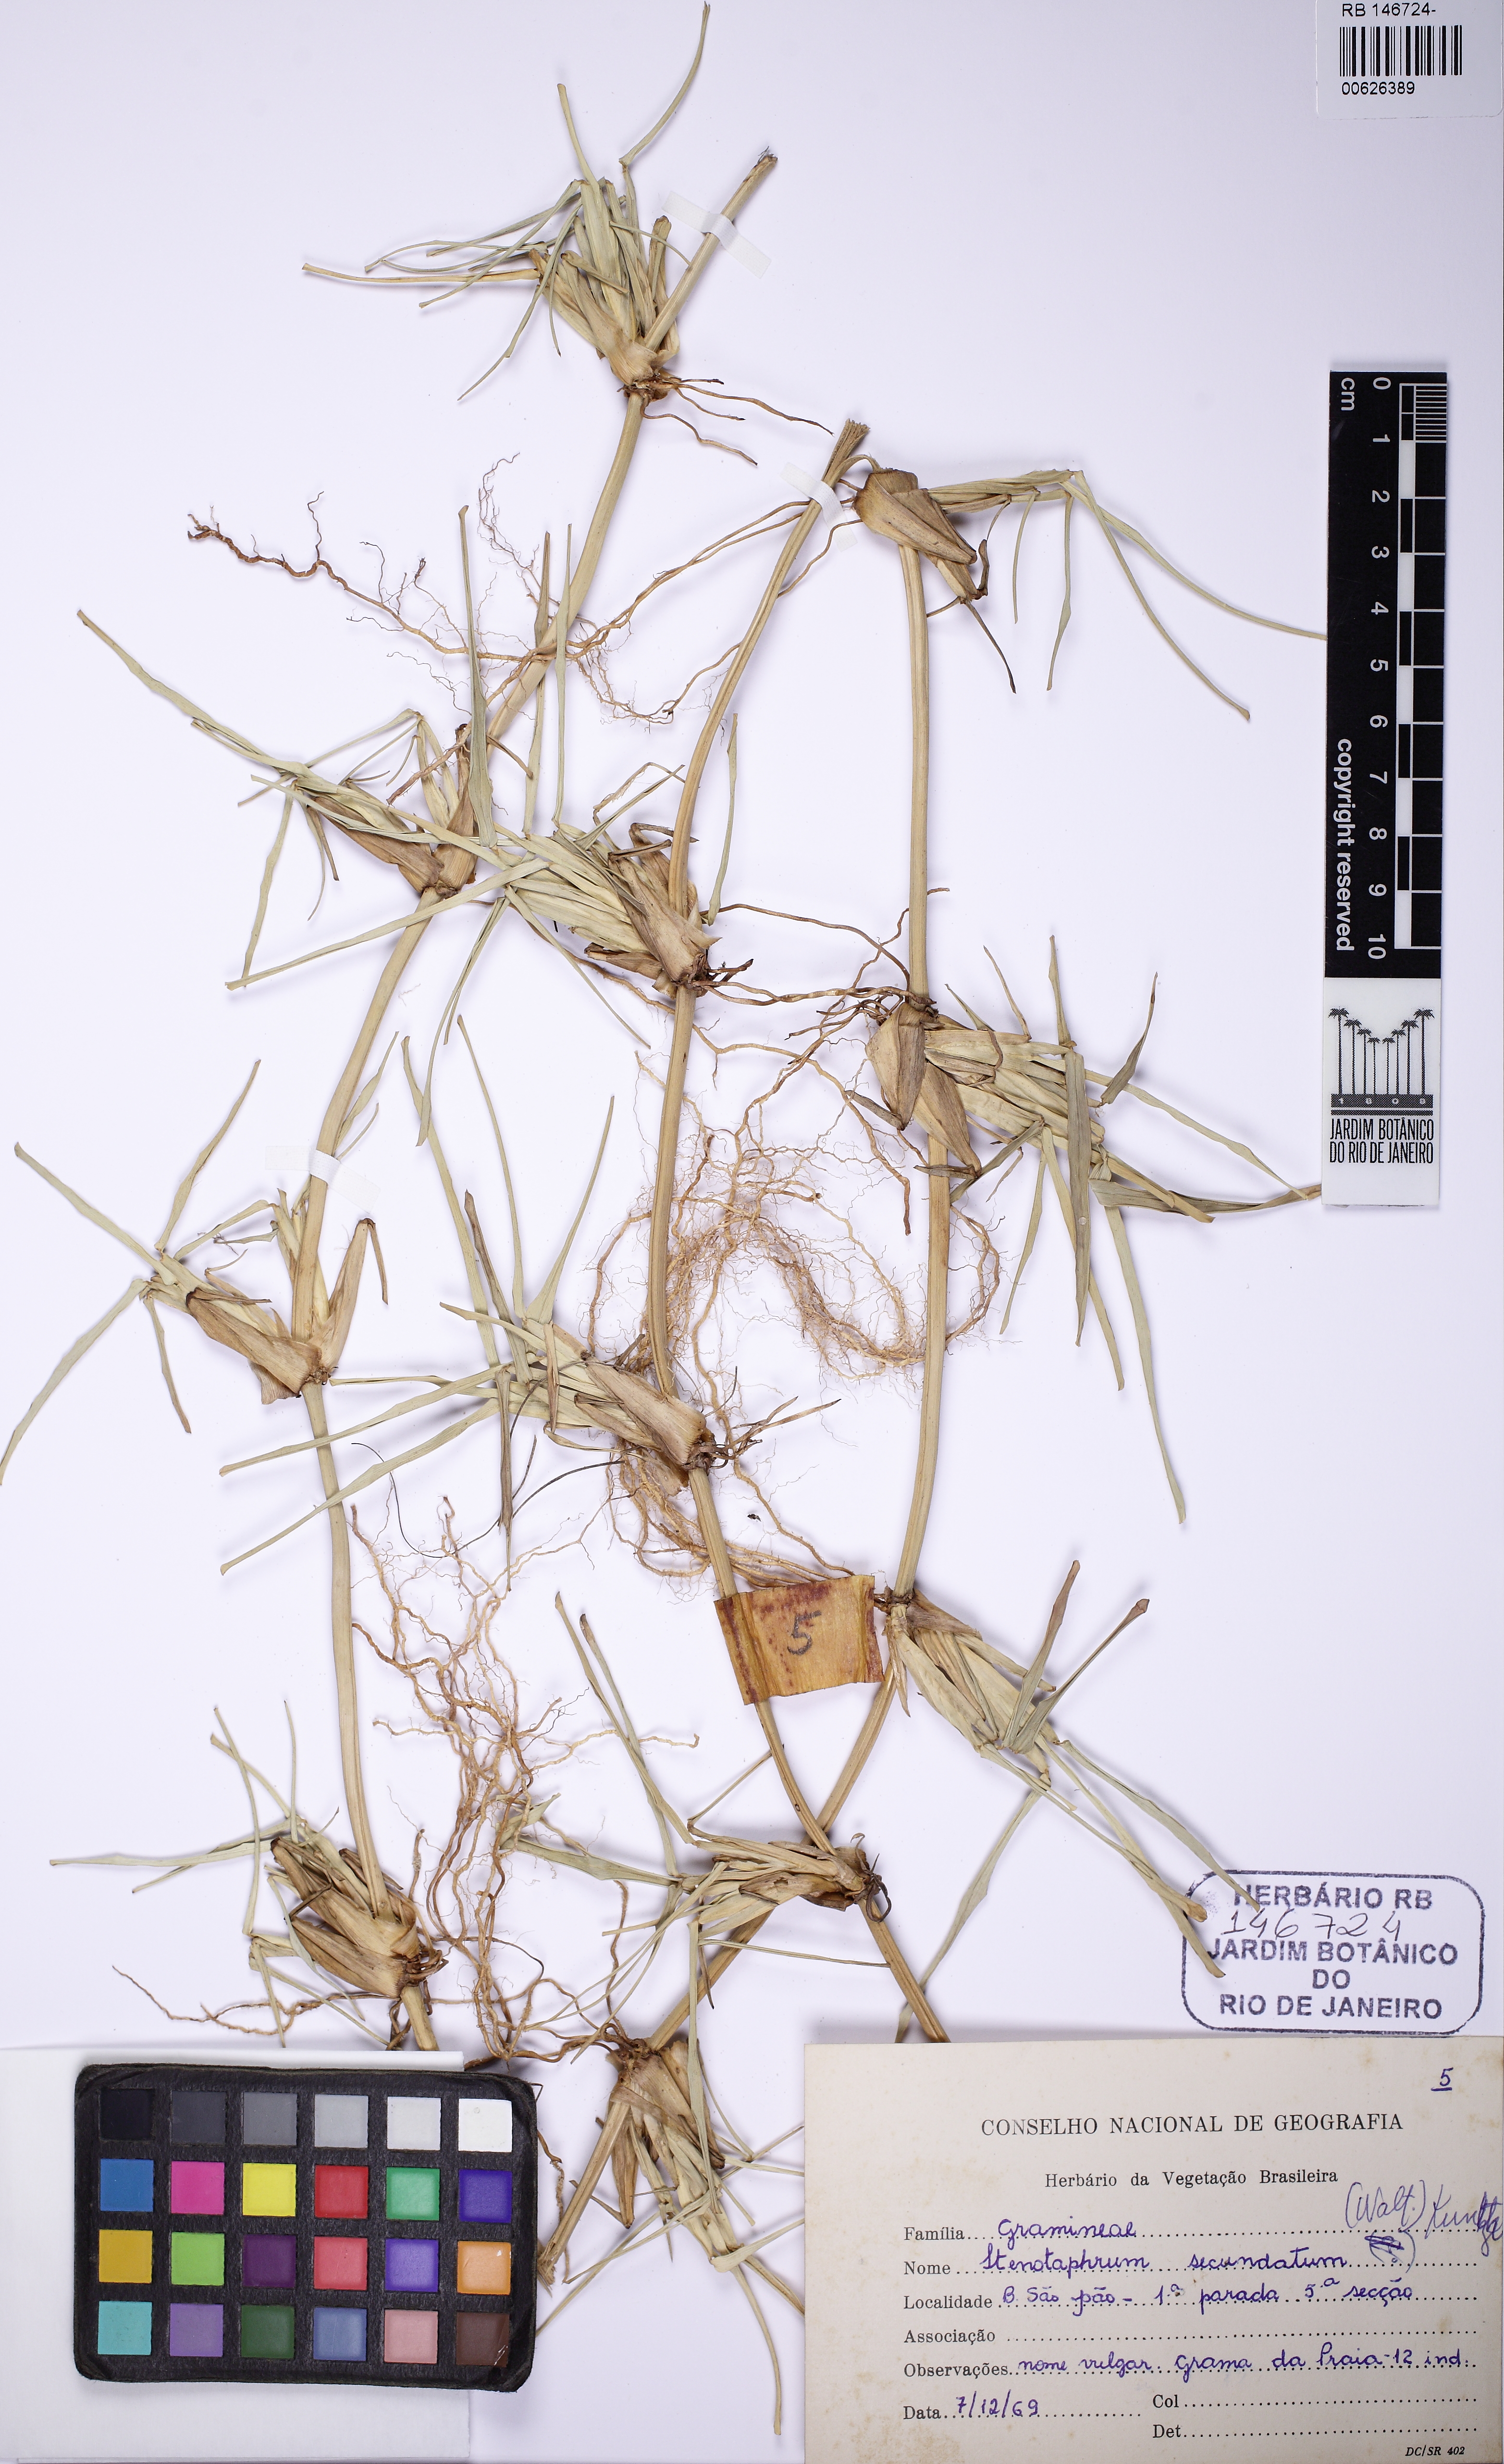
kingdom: Plantae
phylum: Tracheophyta
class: Liliopsida
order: Poales
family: Poaceae
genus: Stenotaphrum
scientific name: Stenotaphrum secundatum
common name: St. augustine grass
